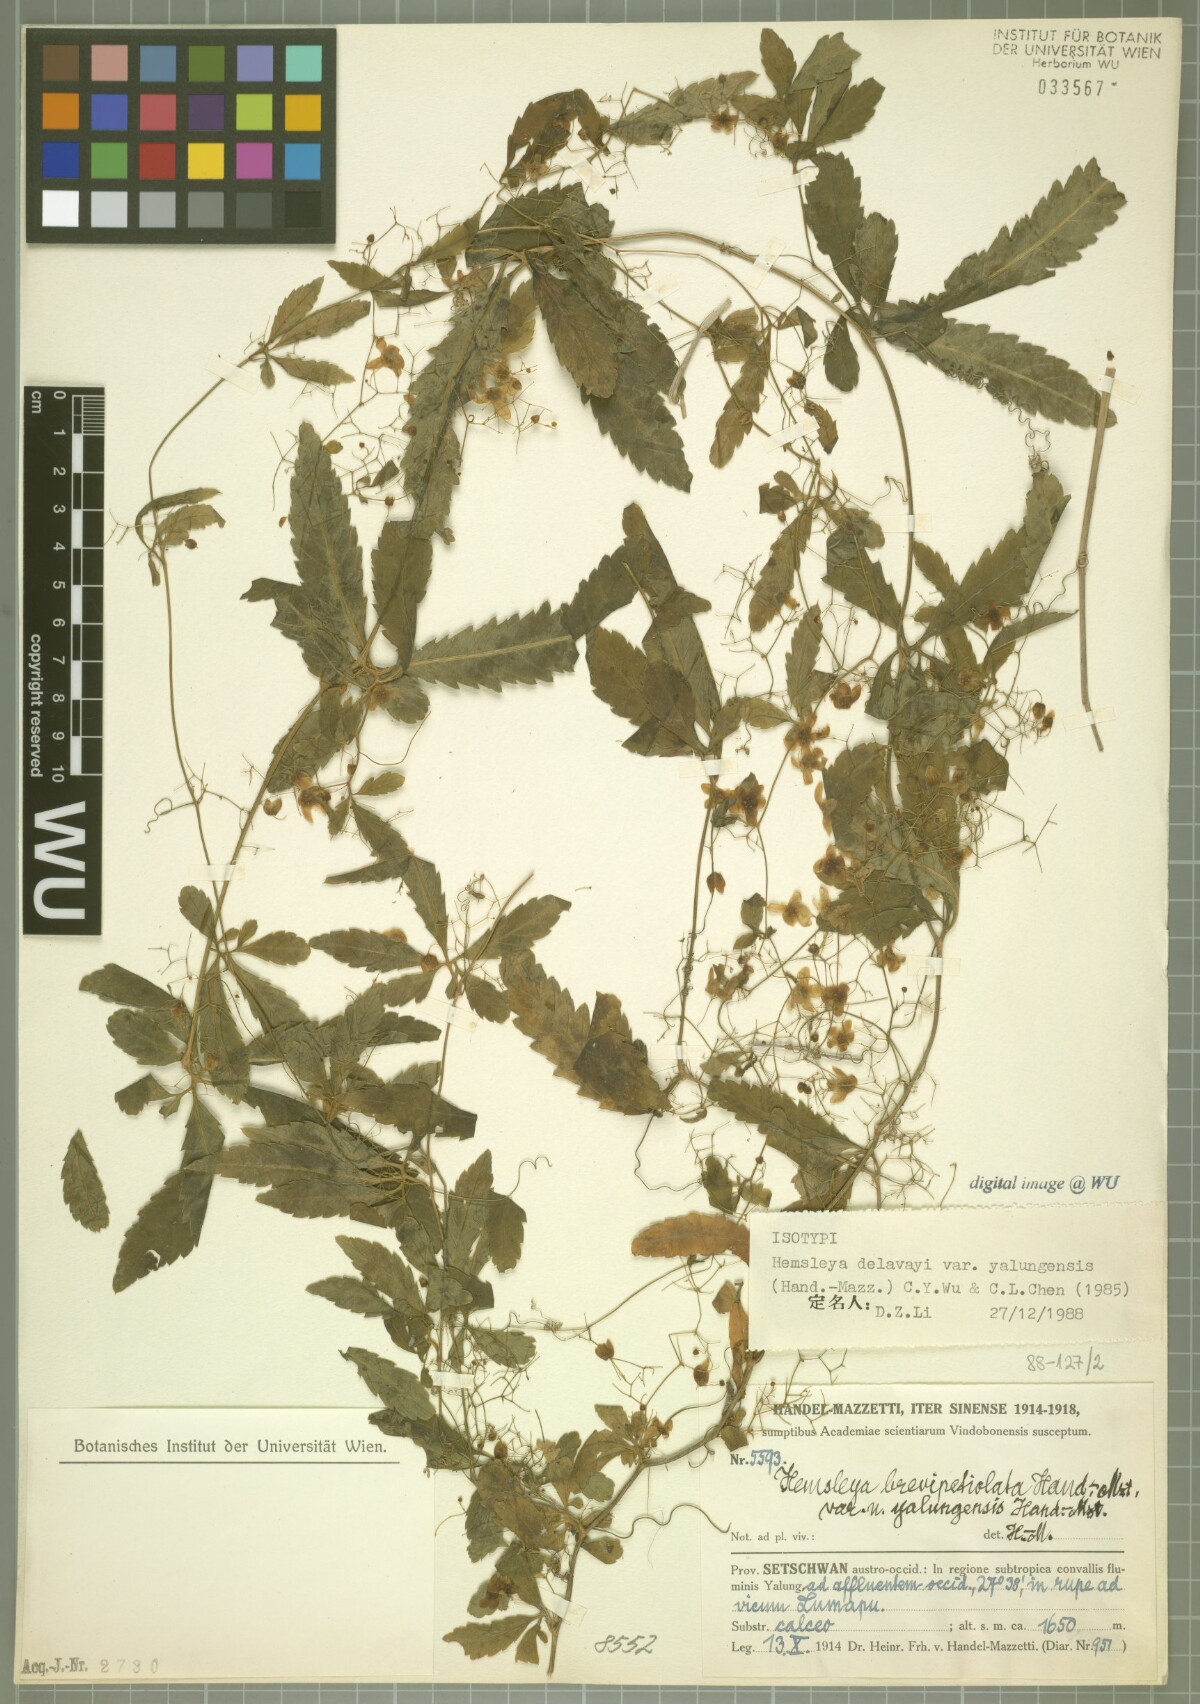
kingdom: Plantae
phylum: Tracheophyta
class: Magnoliopsida
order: Cucurbitales
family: Cucurbitaceae
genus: Hemsleya
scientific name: Hemsleya delavayi
